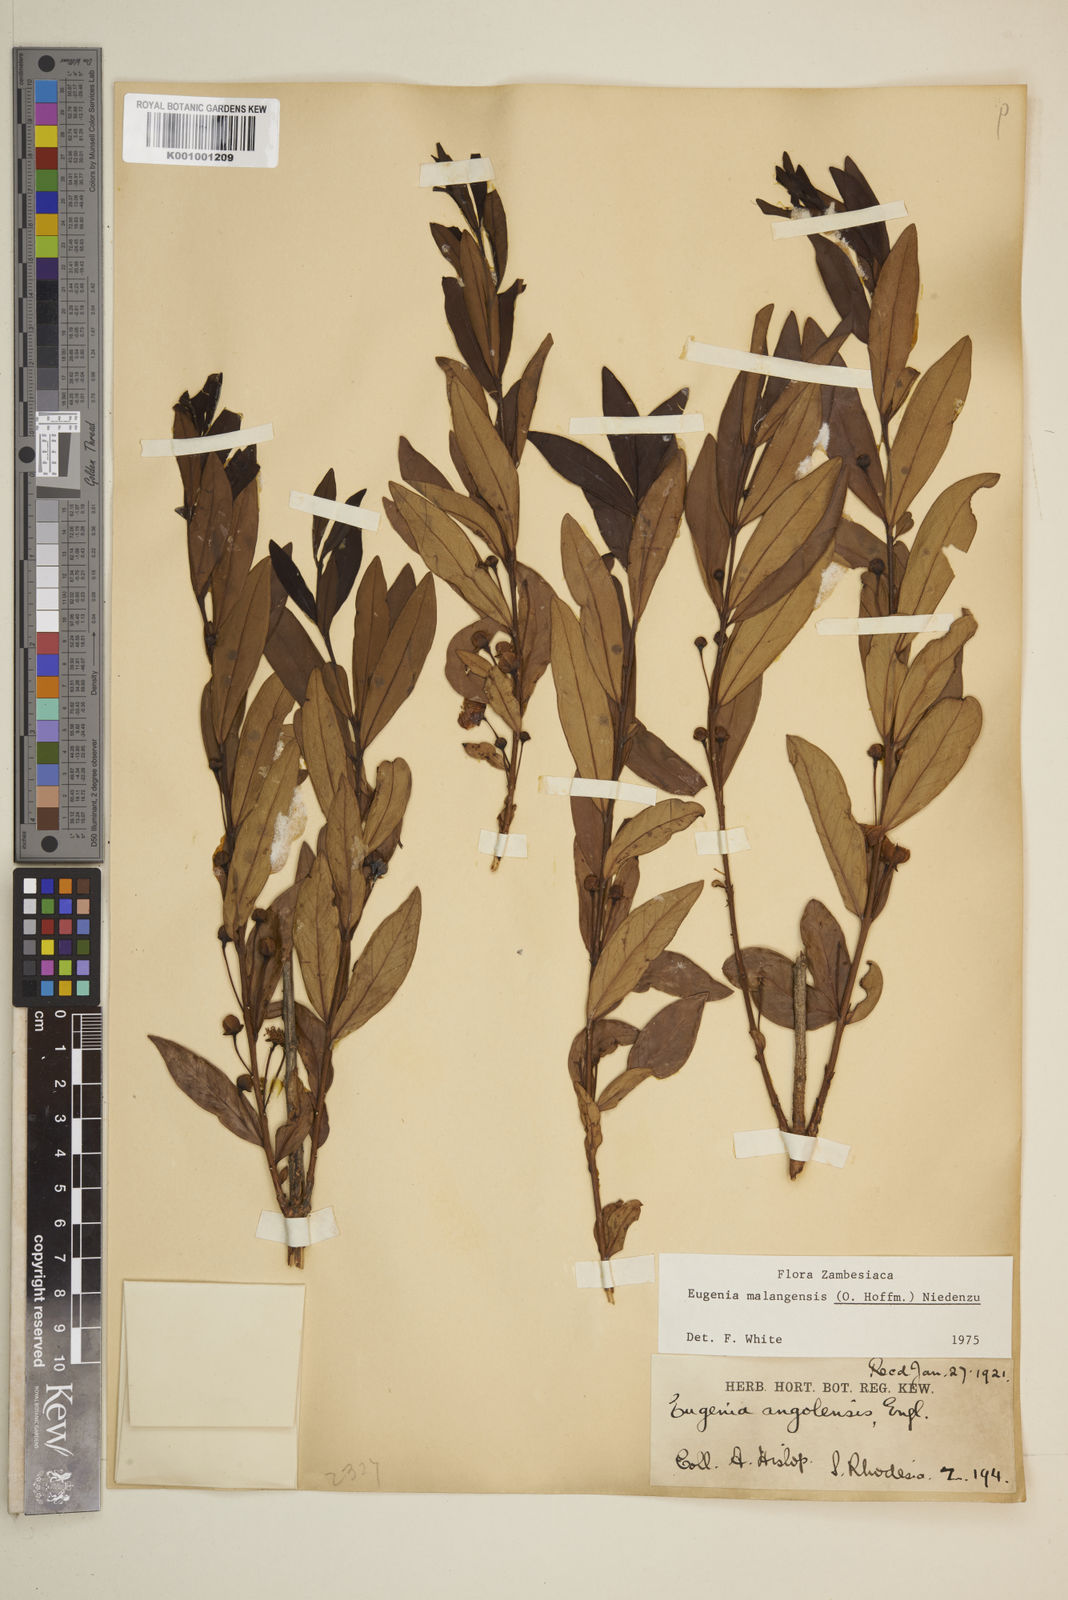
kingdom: Plantae
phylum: Tracheophyta
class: Magnoliopsida
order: Myrtales
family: Myrtaceae
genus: Eugenia
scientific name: Eugenia malangensis
